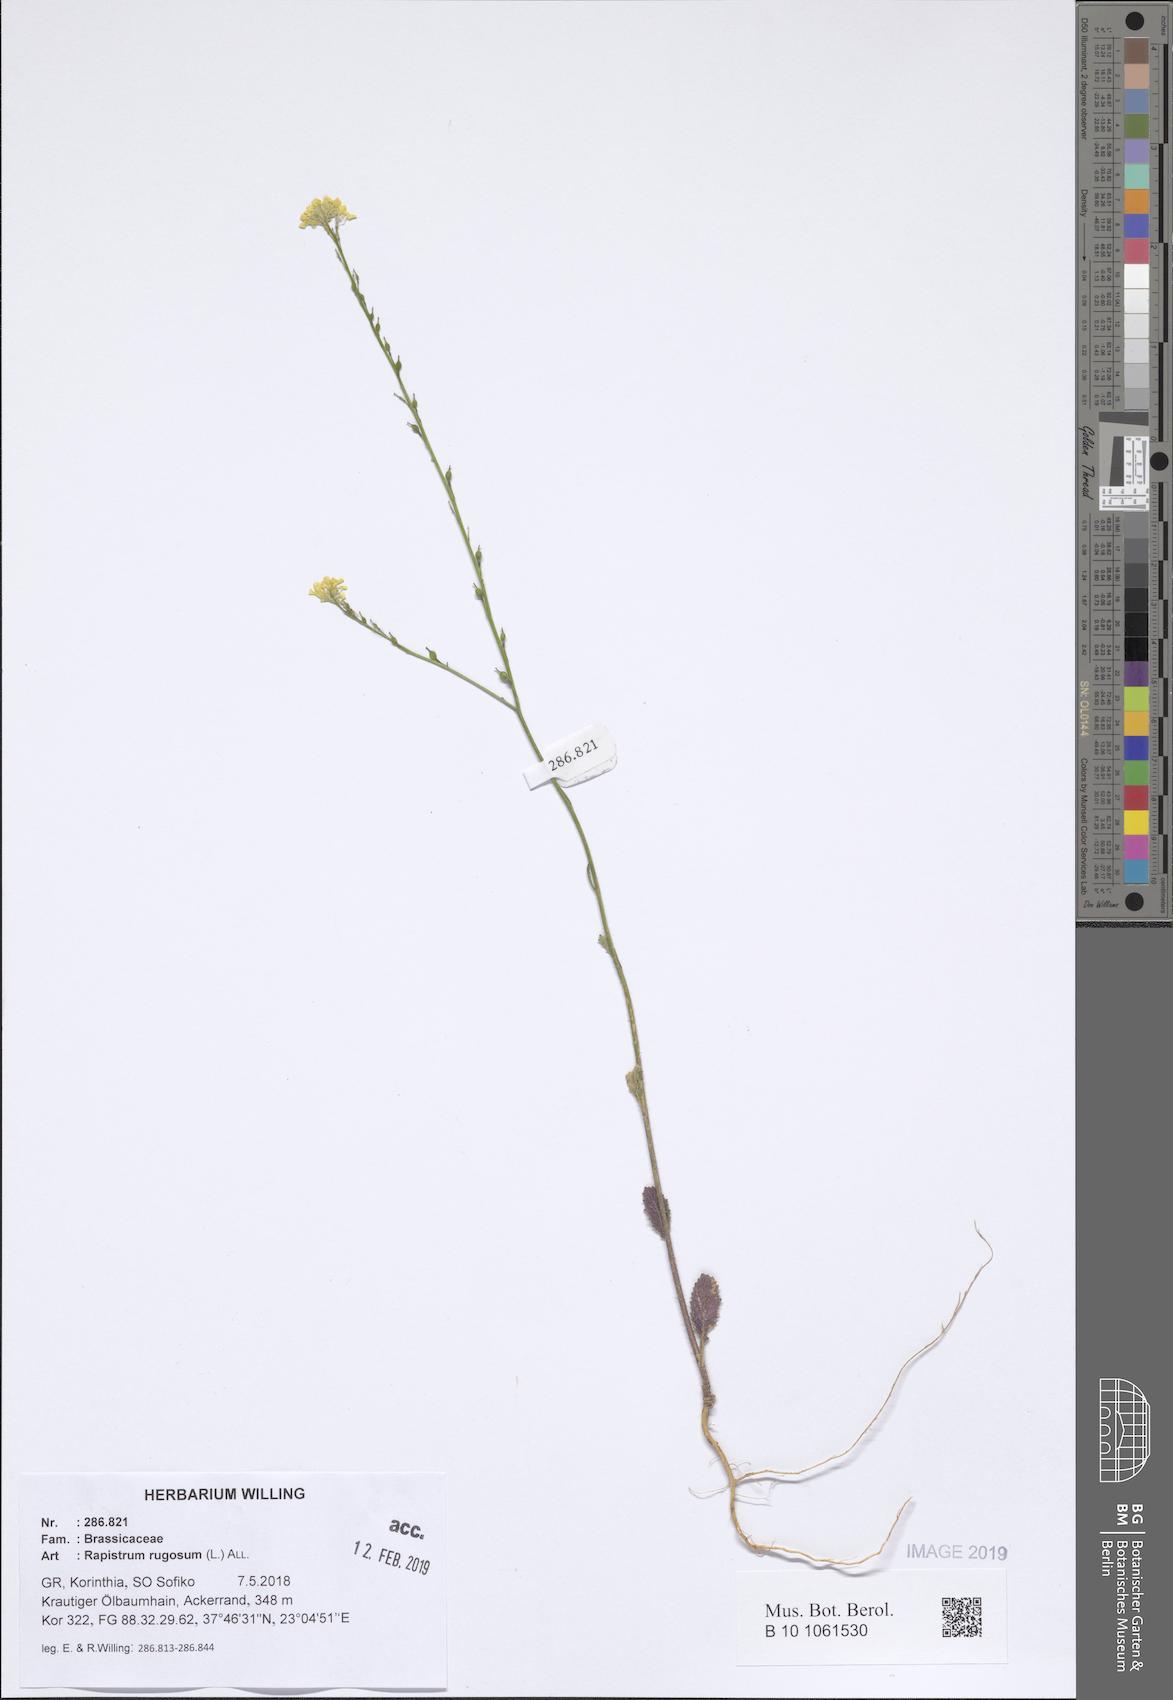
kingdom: Plantae
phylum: Tracheophyta
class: Magnoliopsida
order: Brassicales
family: Brassicaceae
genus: Rapistrum
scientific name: Rapistrum rugosum
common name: Annual bastardcabbage
